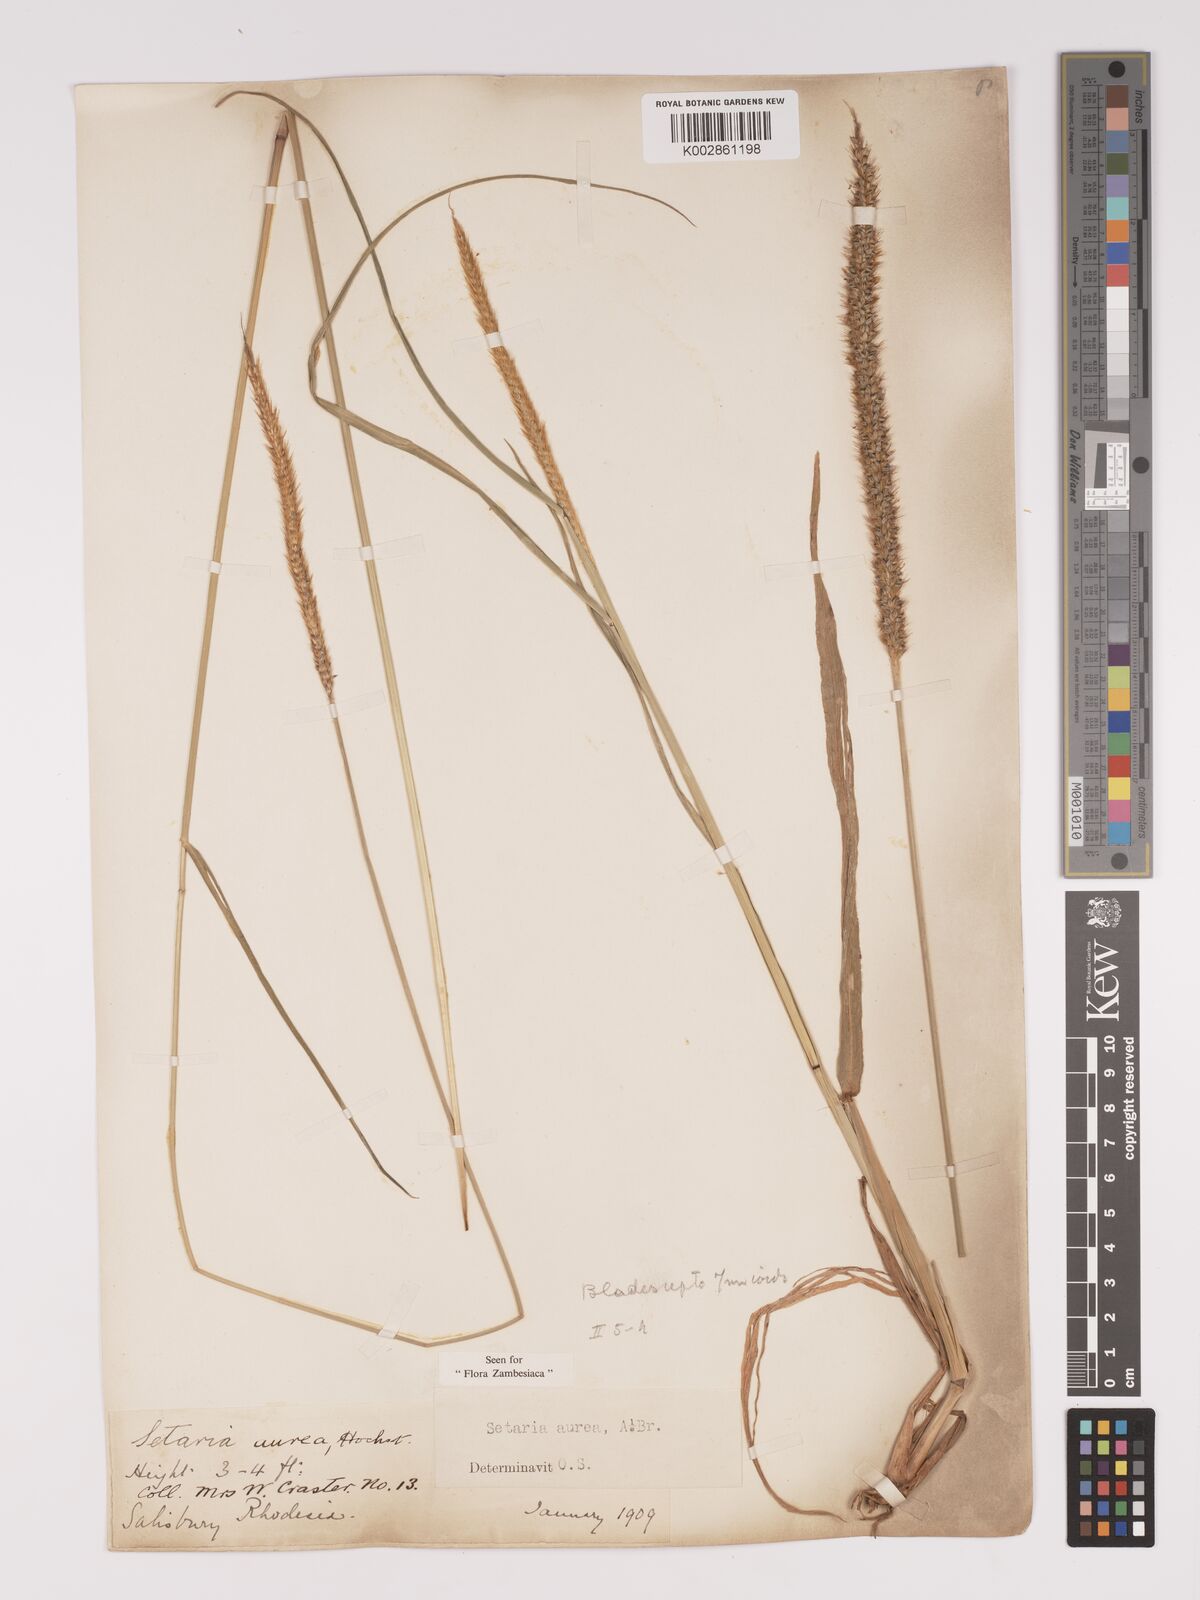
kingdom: Plantae
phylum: Tracheophyta
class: Liliopsida
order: Poales
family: Poaceae
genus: Setaria
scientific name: Setaria sphacelata
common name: African bristlegrass
